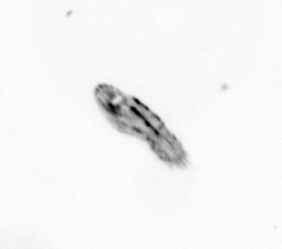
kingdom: Animalia
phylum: Arthropoda
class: Copepoda
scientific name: Copepoda
